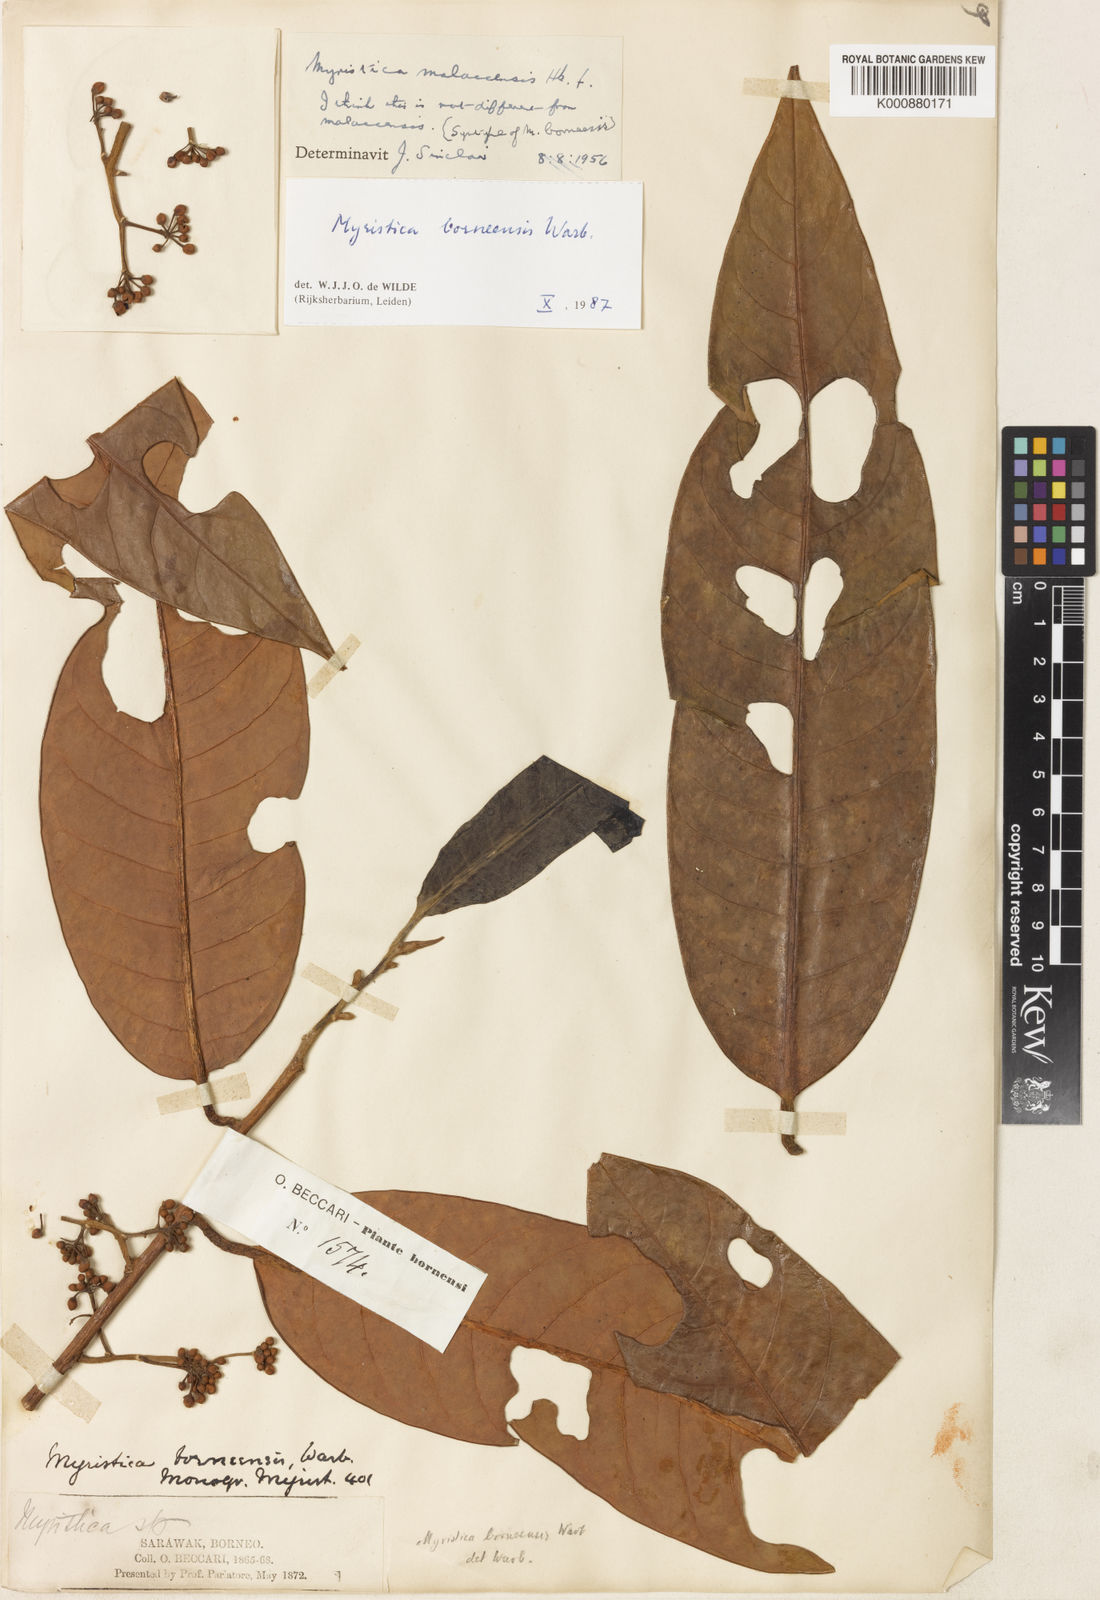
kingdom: Plantae
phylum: Tracheophyta
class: Magnoliopsida
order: Magnoliales
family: Myristicaceae
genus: Myristica
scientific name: Myristica malaccensis
